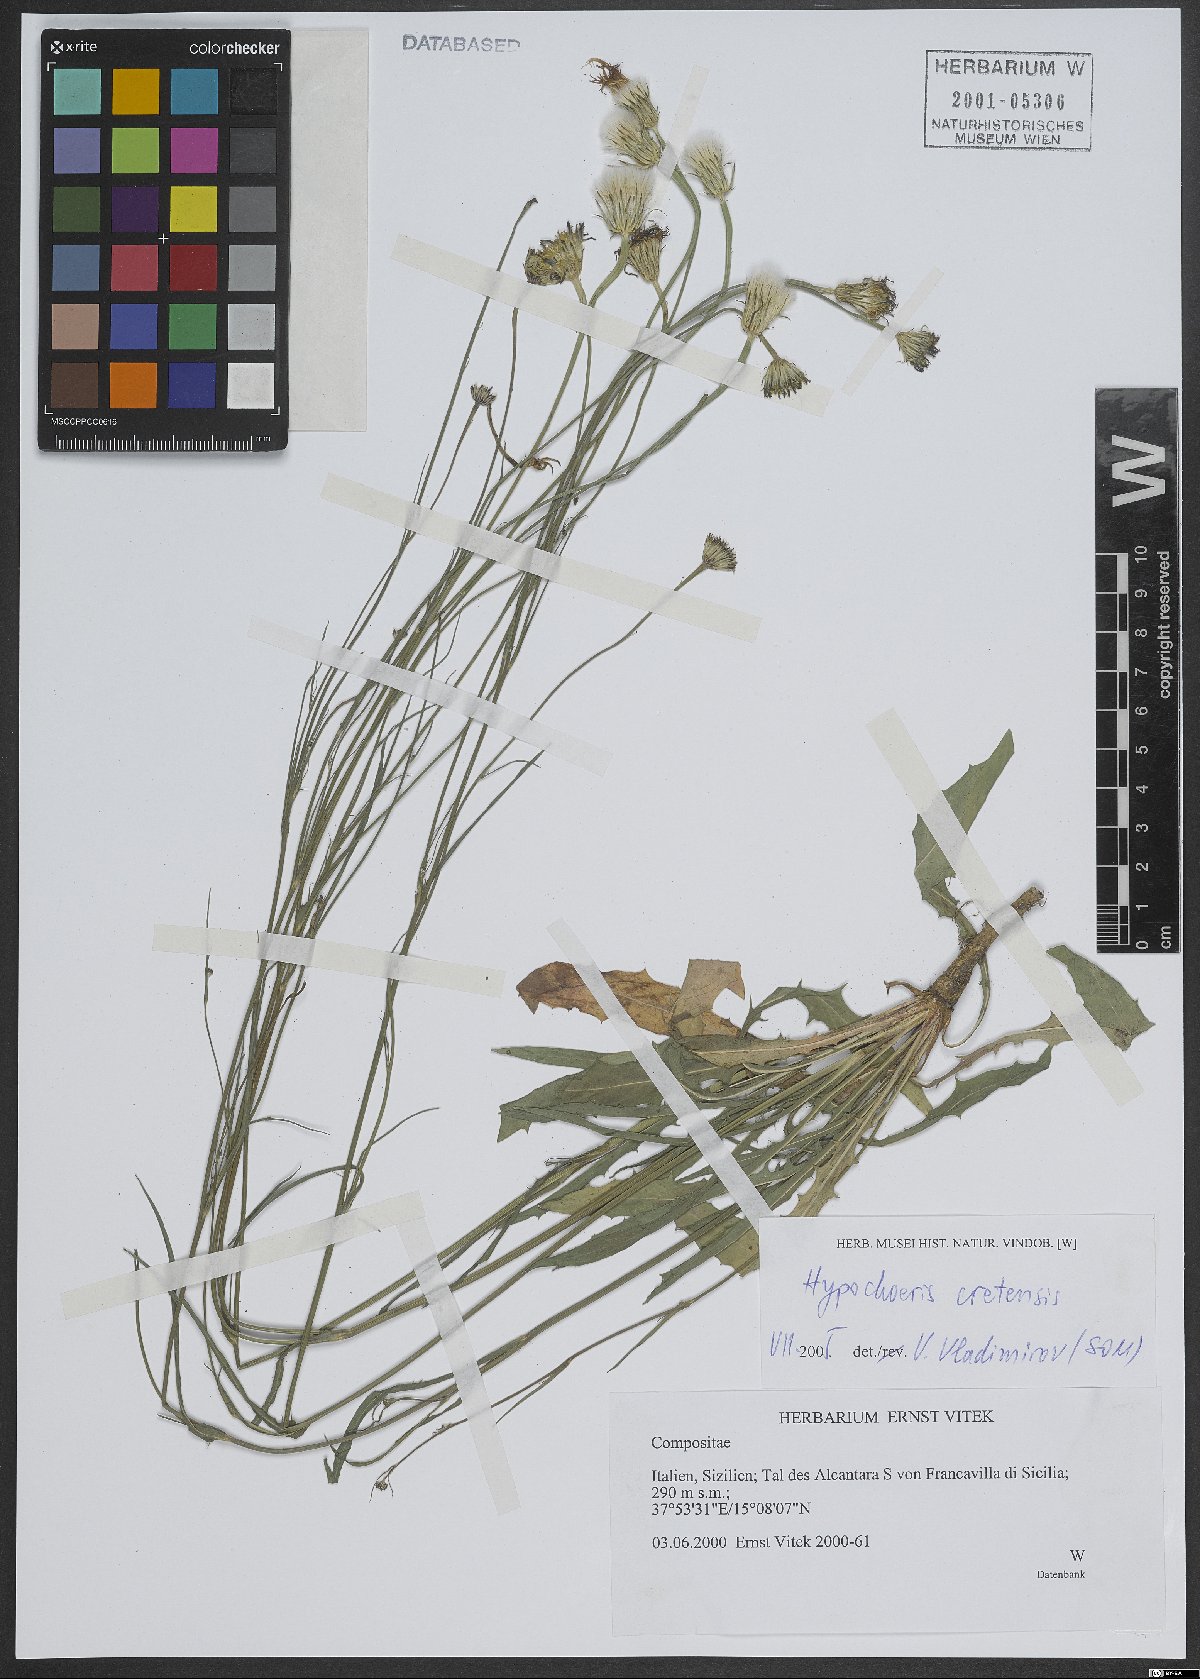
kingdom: Plantae
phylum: Tracheophyta
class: Magnoliopsida
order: Asterales
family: Asteraceae
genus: Hypochaeris
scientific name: Hypochaeris cretensis
